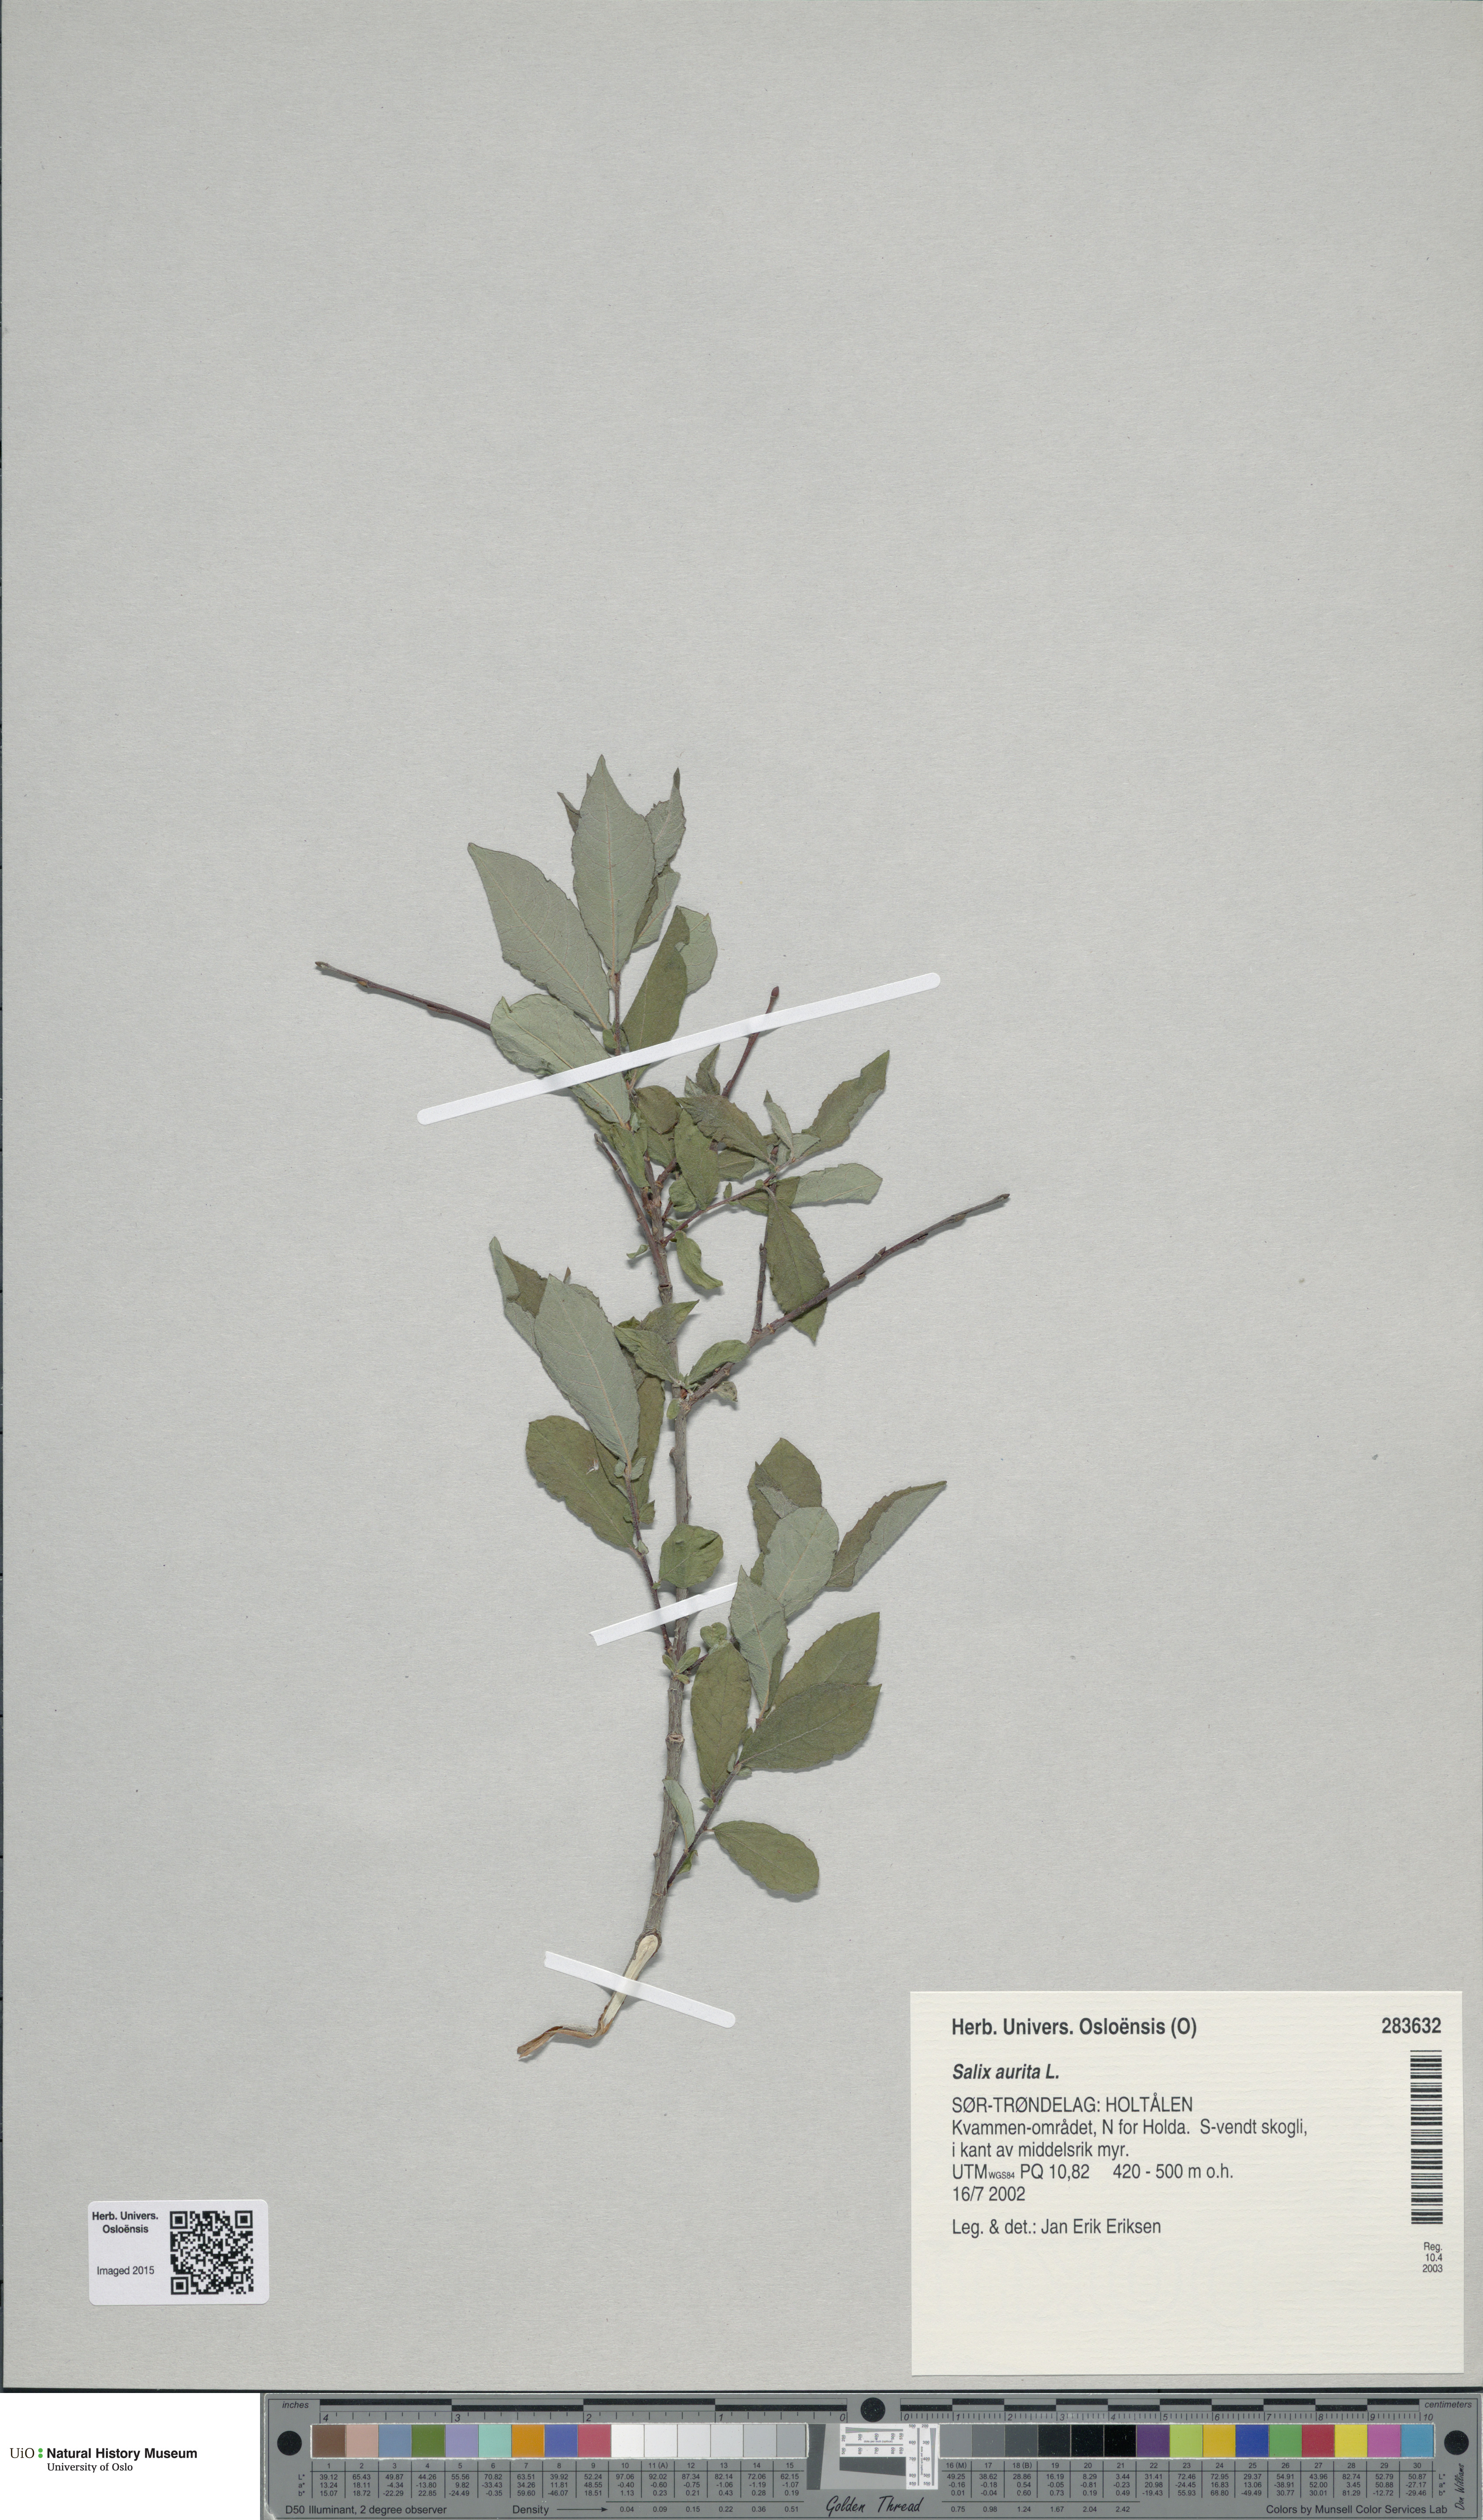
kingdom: Plantae
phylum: Tracheophyta
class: Magnoliopsida
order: Malpighiales
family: Salicaceae
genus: Salix
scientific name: Salix aurita
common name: Eared willow
